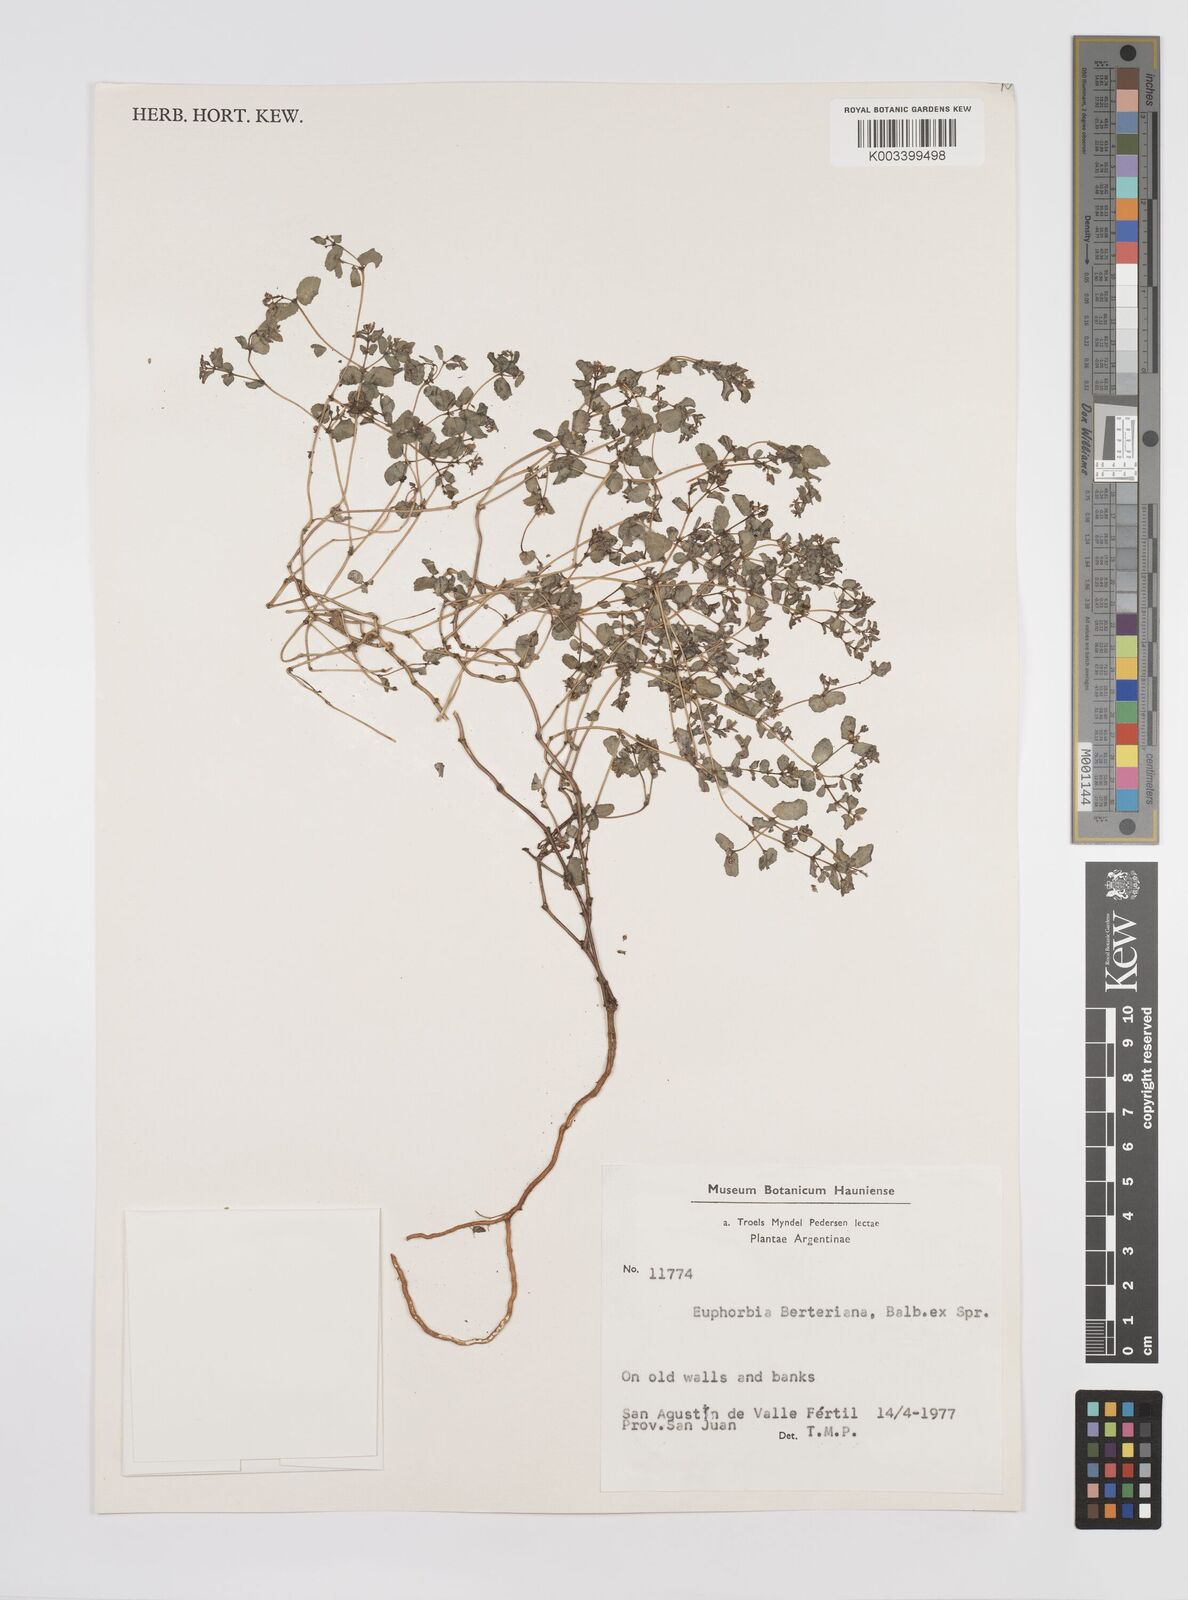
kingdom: Plantae
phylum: Tracheophyta
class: Magnoliopsida
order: Malpighiales
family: Euphorbiaceae
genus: Euphorbia
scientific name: Euphorbia berteroana
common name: Bertero's sandmat
